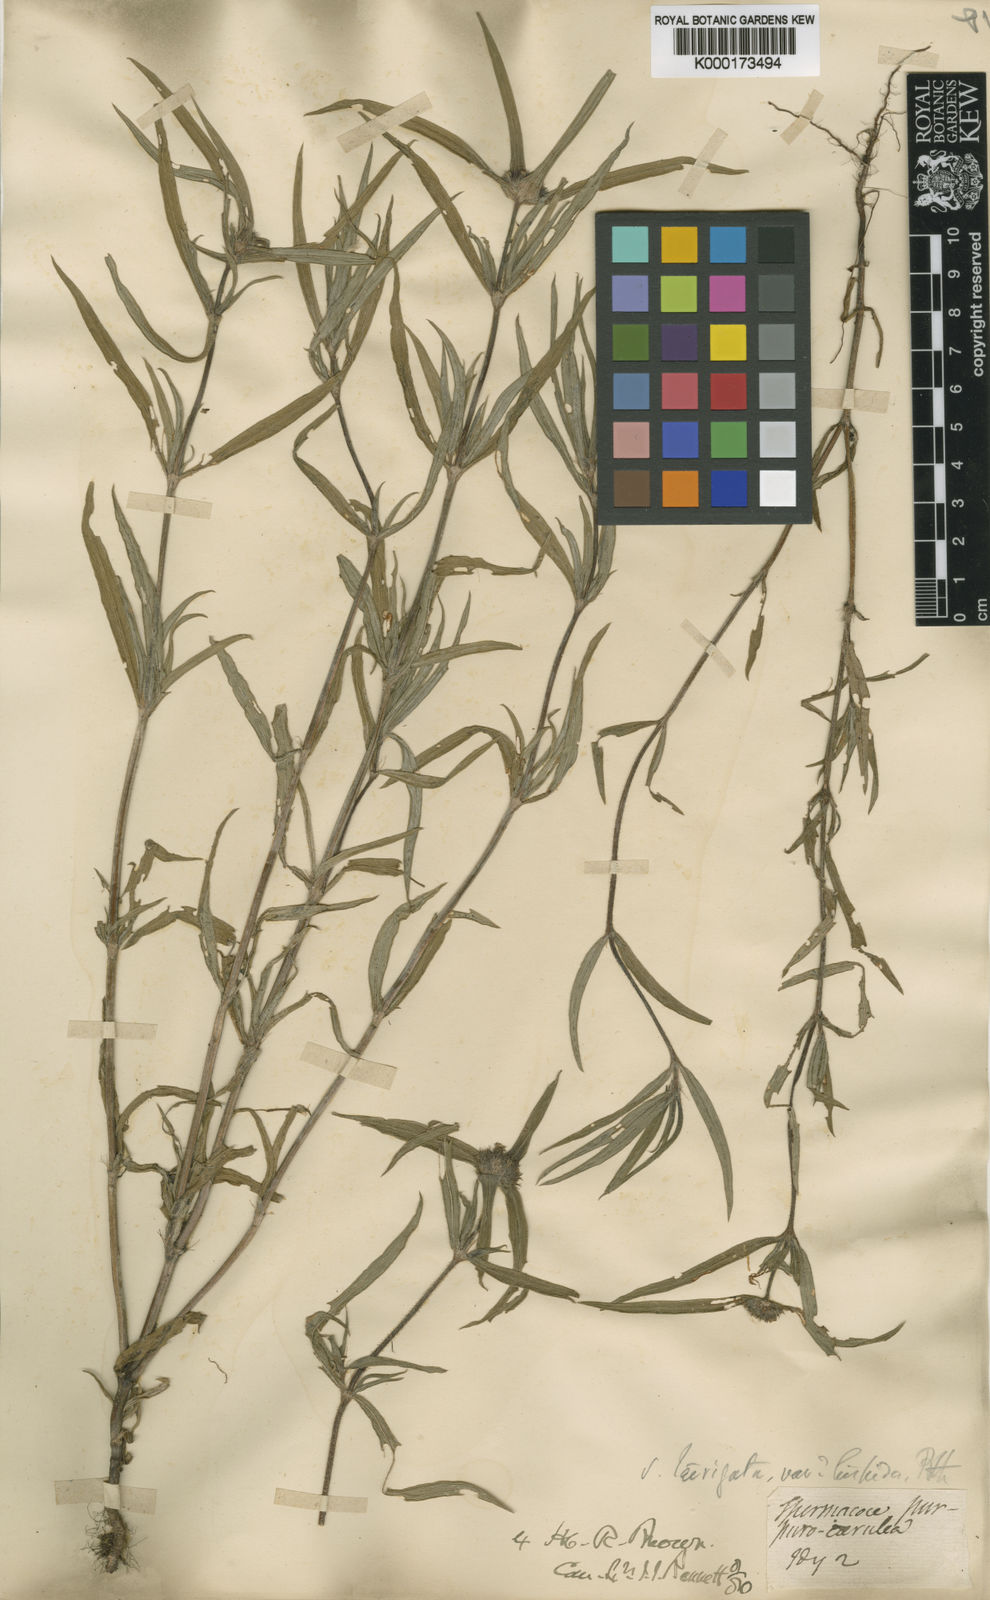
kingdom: Plantae
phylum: Tracheophyta
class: Magnoliopsida
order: Gentianales
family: Rubiaceae
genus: Spermacoce
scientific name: Spermacoce elaiosoma
